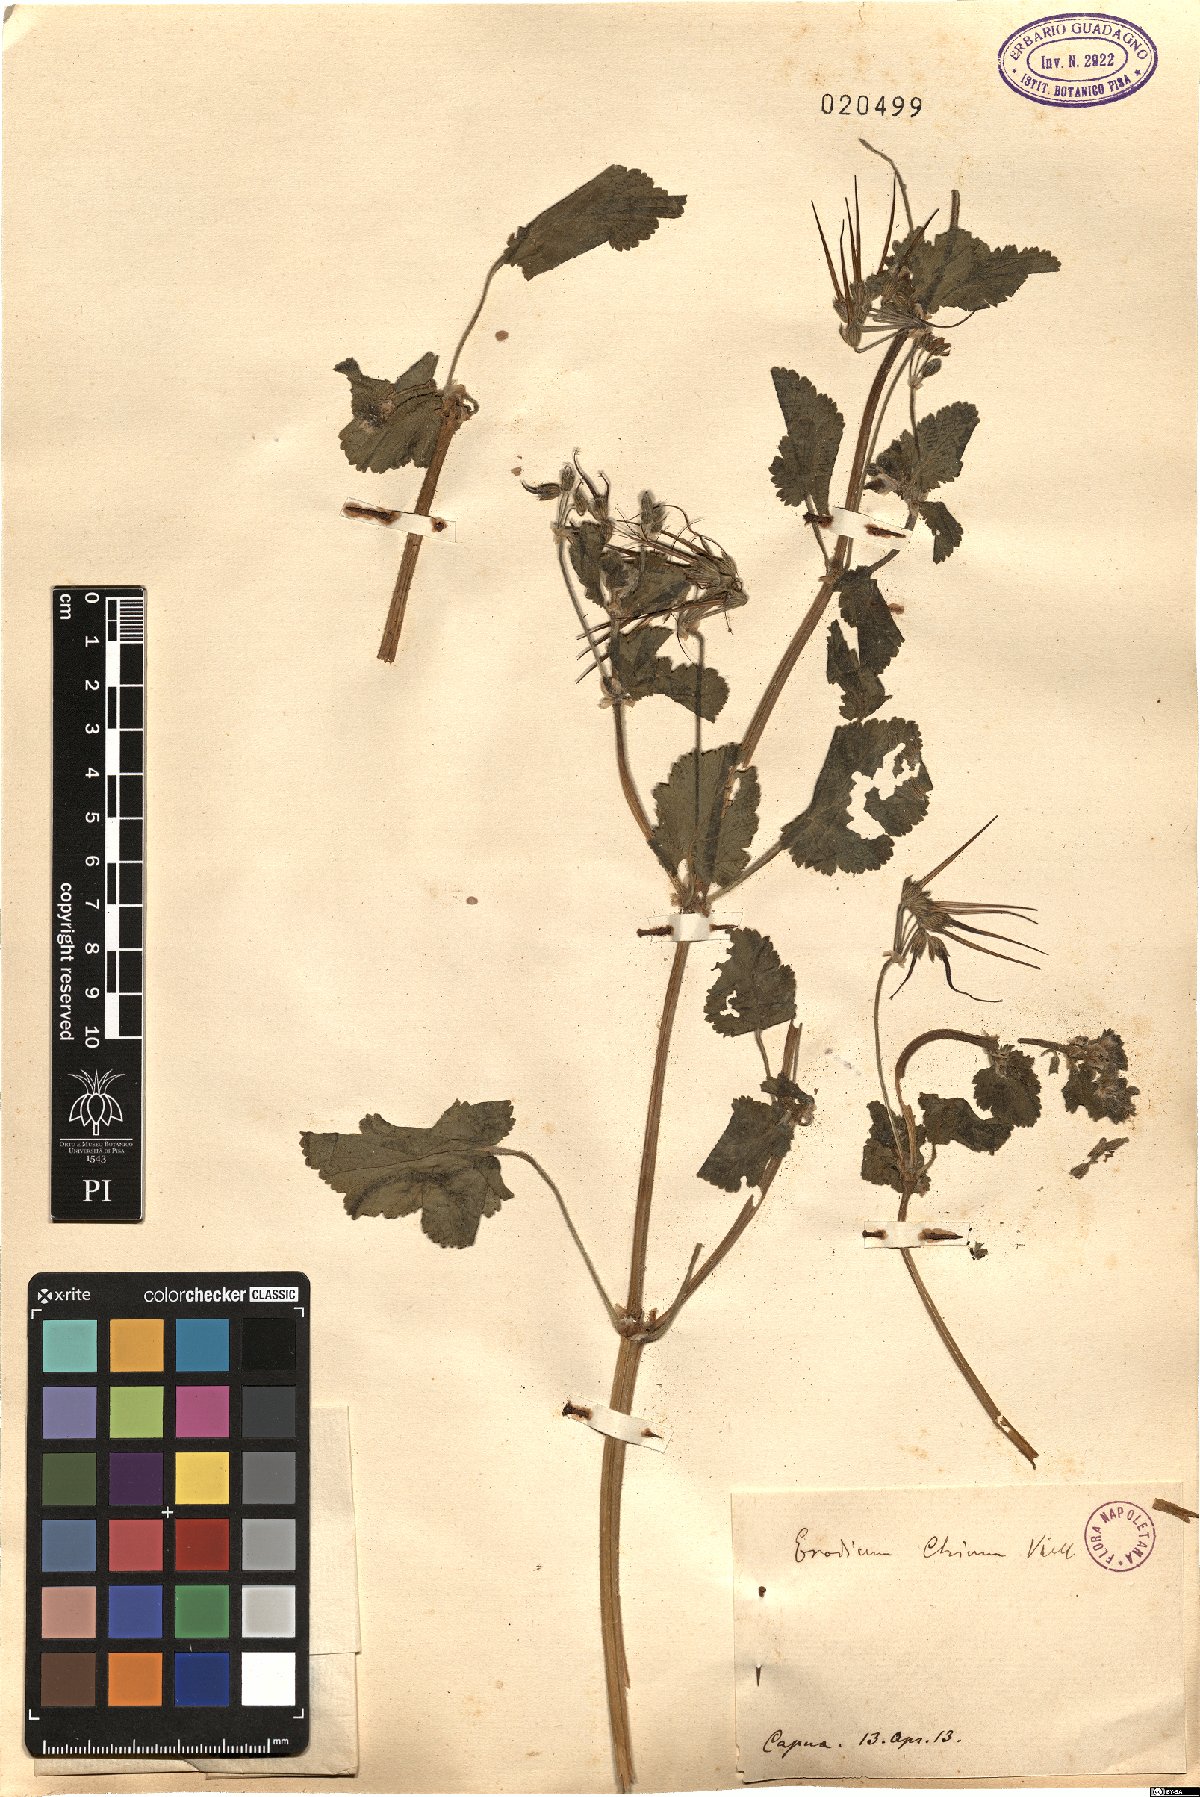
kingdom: Plantae
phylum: Tracheophyta
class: Magnoliopsida
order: Geraniales
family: Geraniaceae
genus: Erodium
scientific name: Erodium chium
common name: Three-lobed stork's-bill
